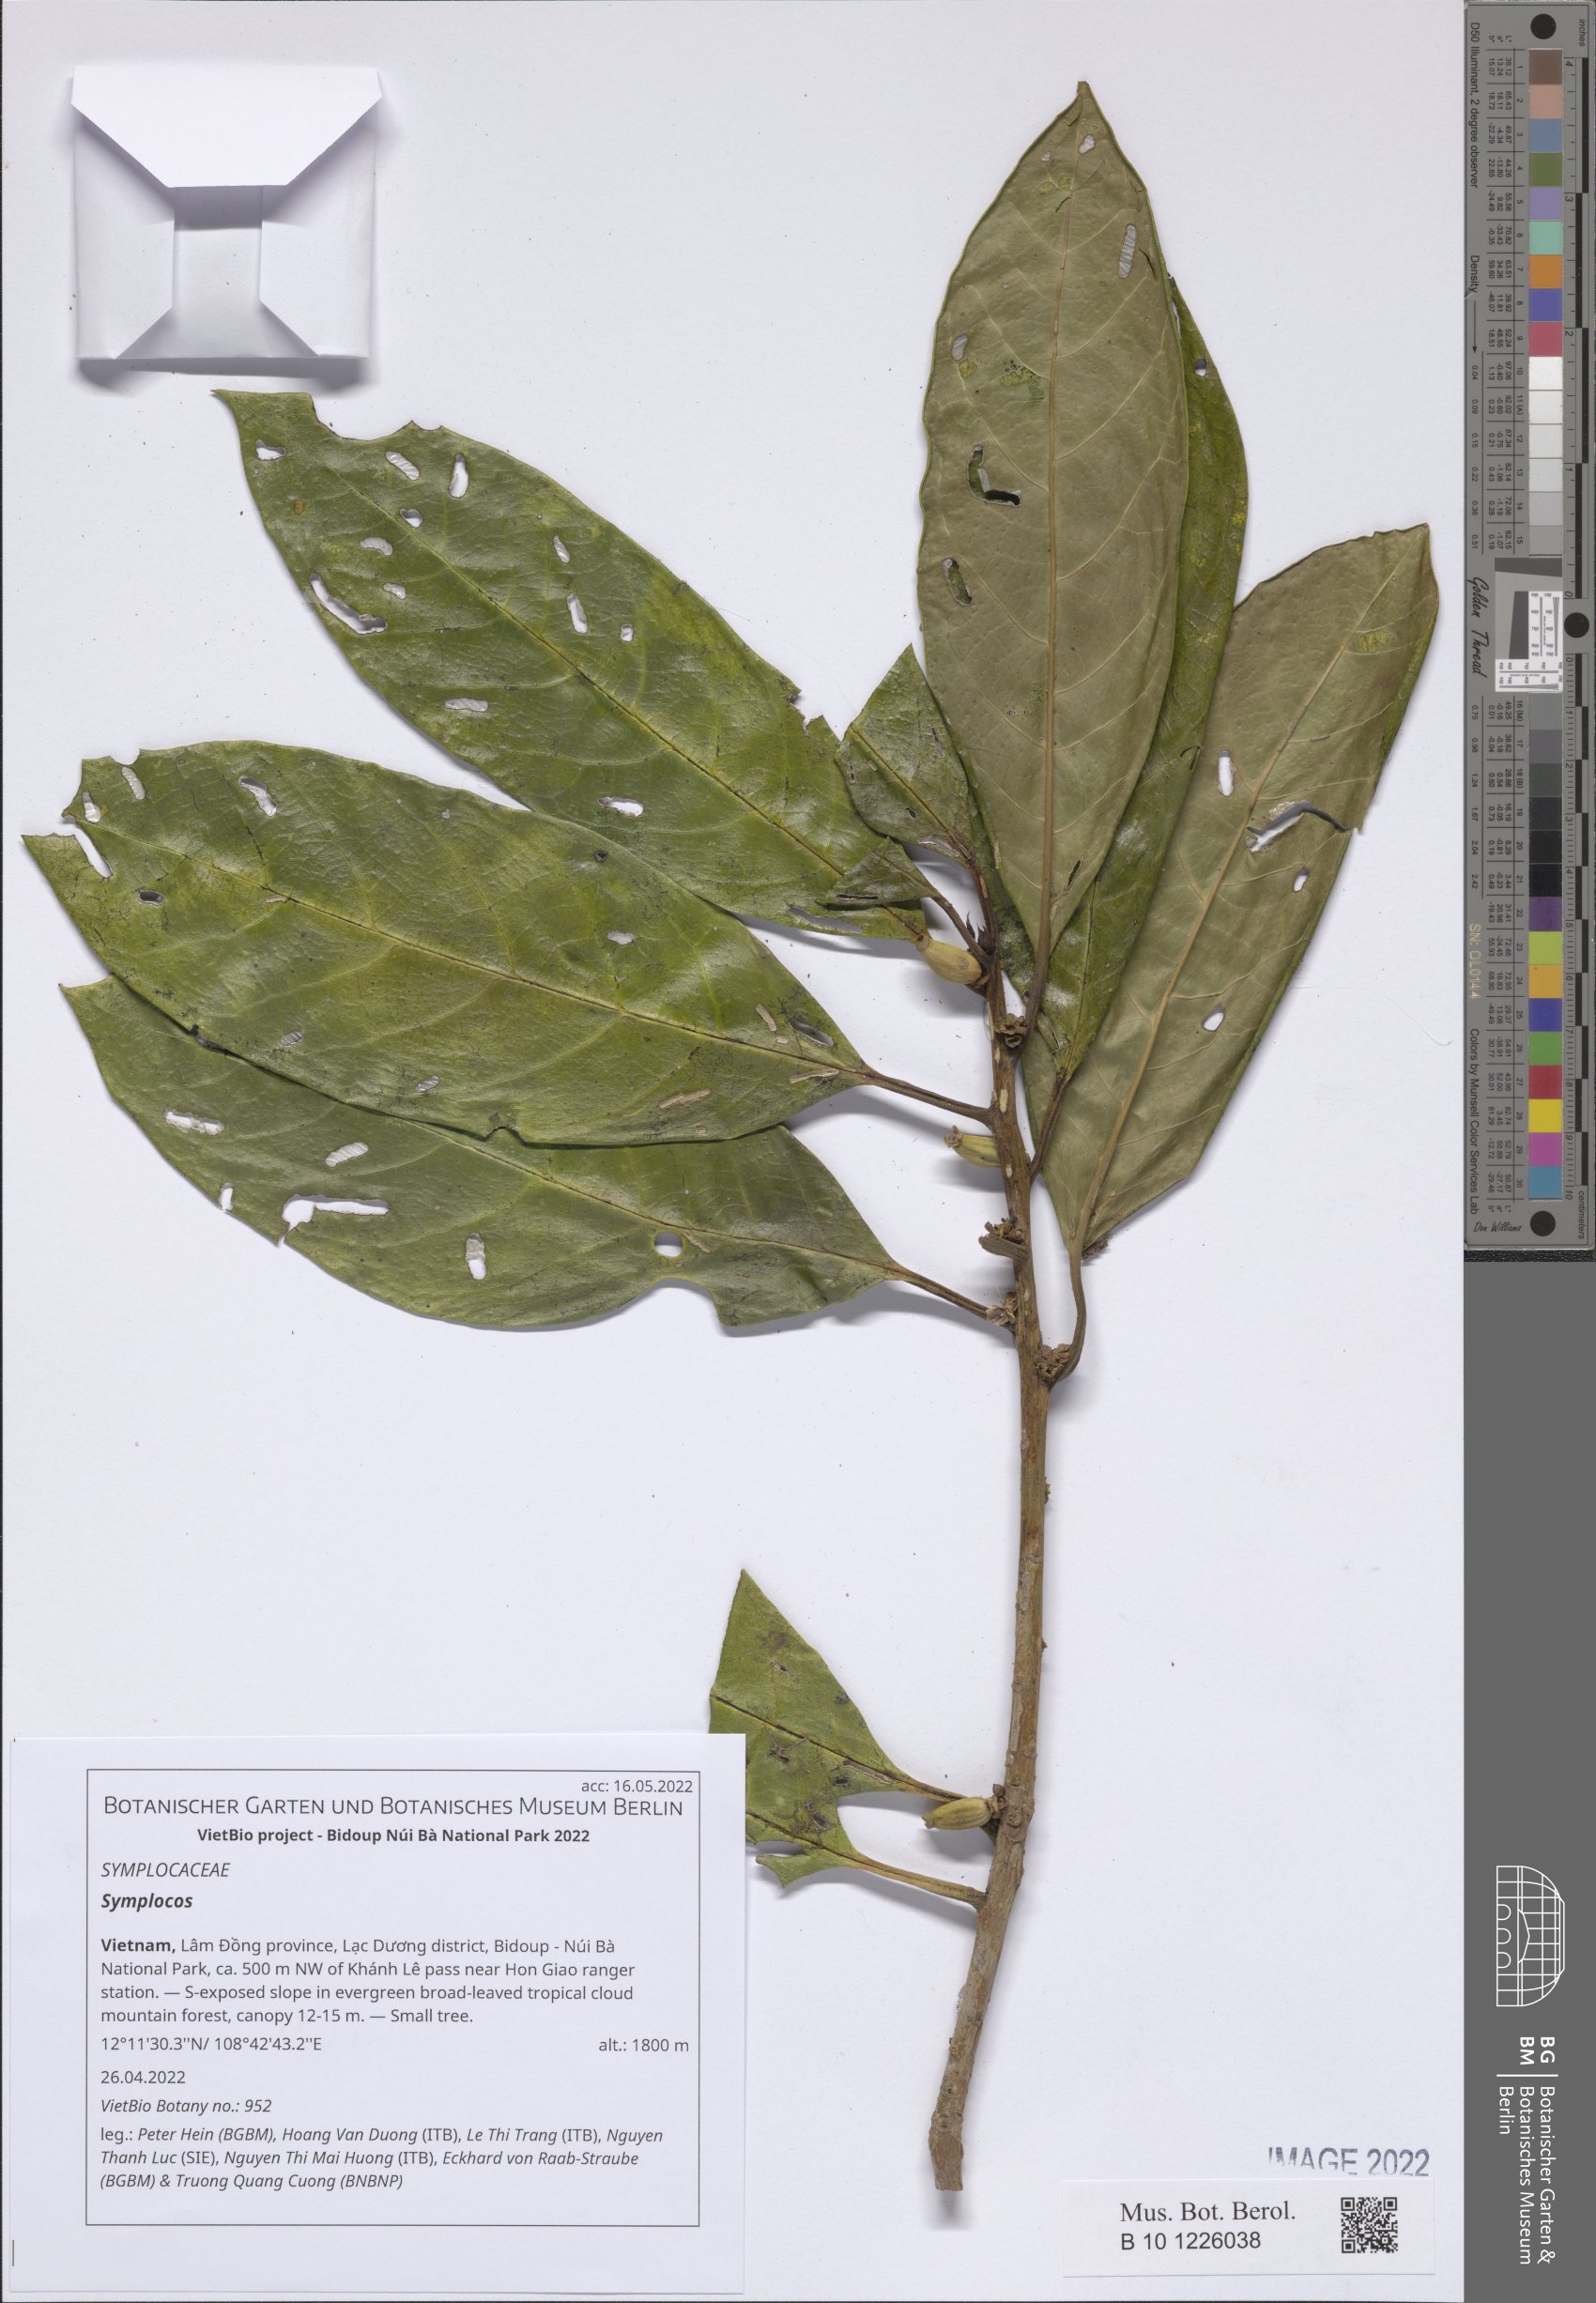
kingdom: Plantae
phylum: Tracheophyta
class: Magnoliopsida
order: Ericales
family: Symplocaceae
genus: Symplocos
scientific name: Symplocos
